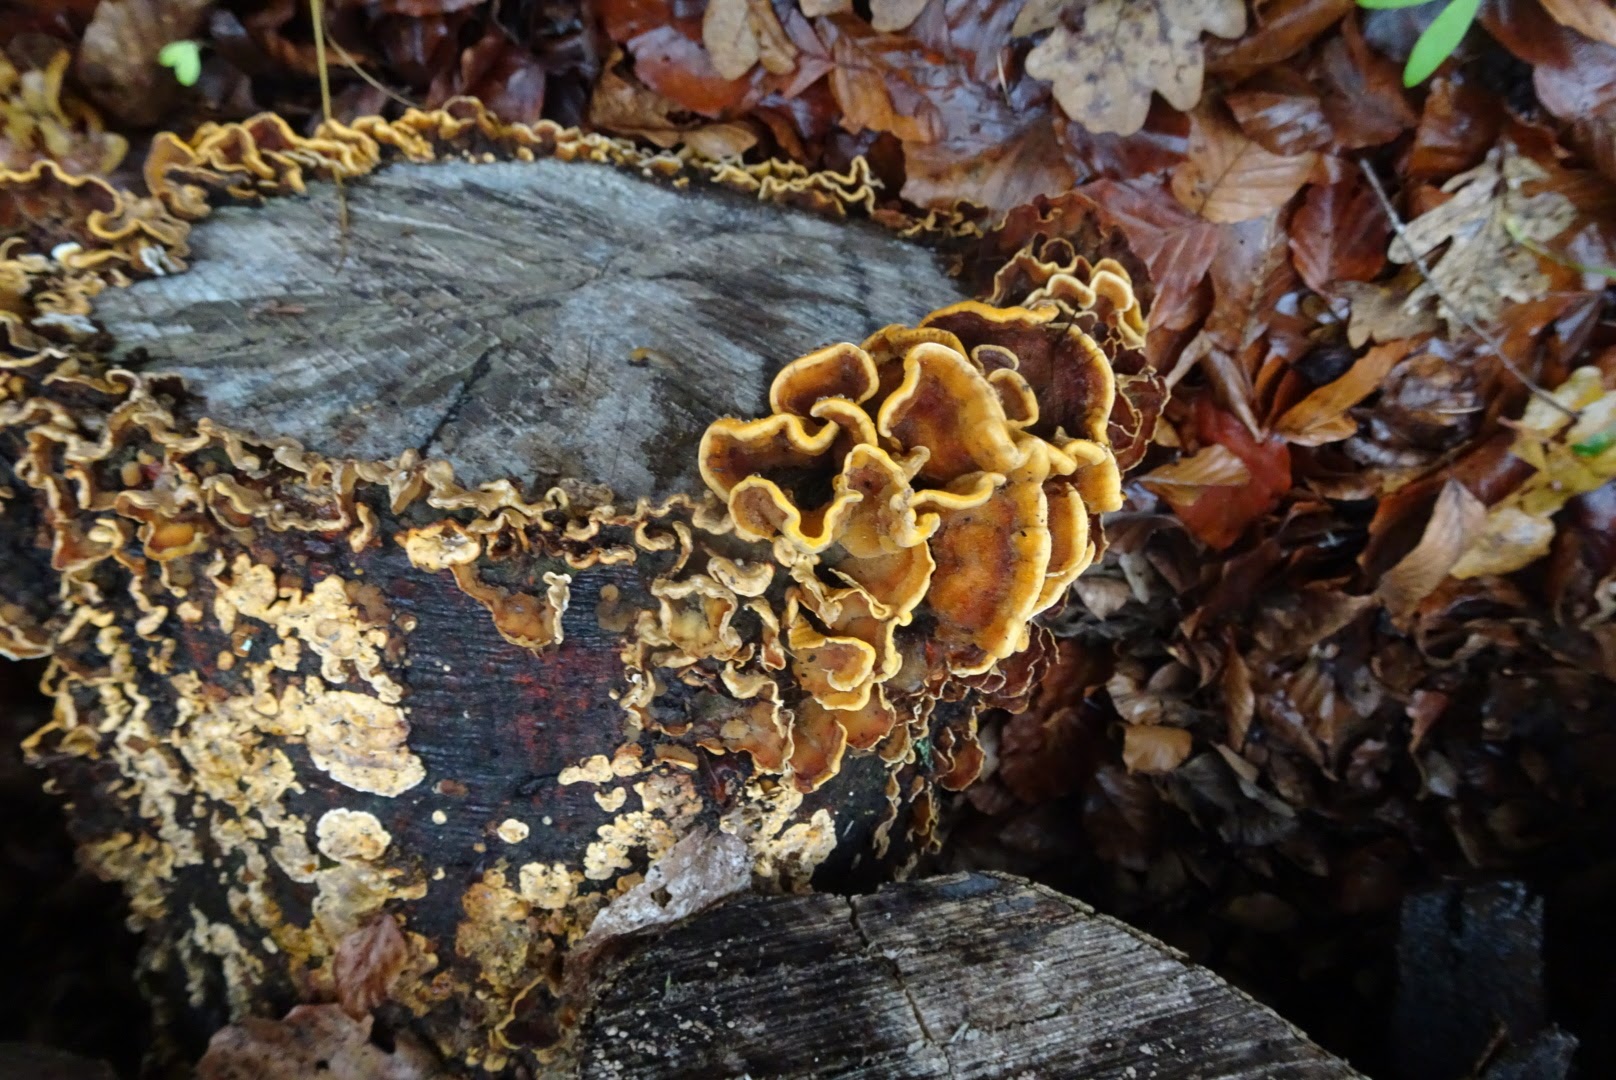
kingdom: Fungi
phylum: Basidiomycota
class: Agaricomycetes
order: Russulales
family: Stereaceae
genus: Stereum
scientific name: Stereum hirsutum
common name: håret lædersvamp
